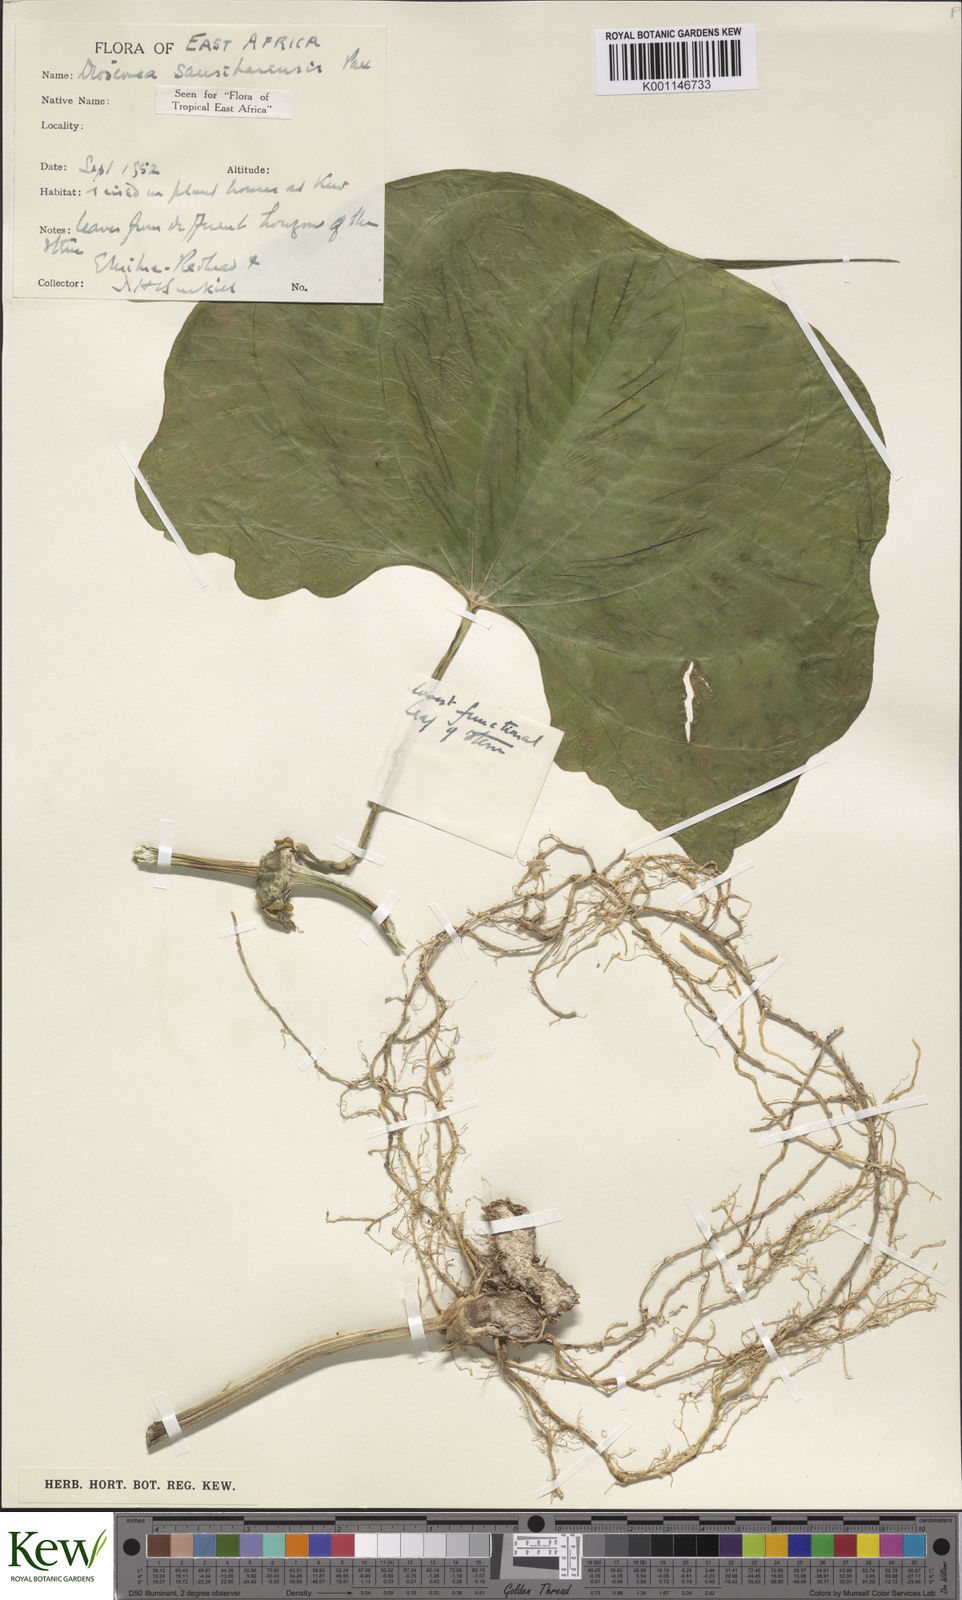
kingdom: Plantae
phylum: Tracheophyta
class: Liliopsida
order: Dioscoreales
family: Dioscoreaceae
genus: Dioscorea
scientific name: Dioscorea sansibarensis
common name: Zanzibar yam
